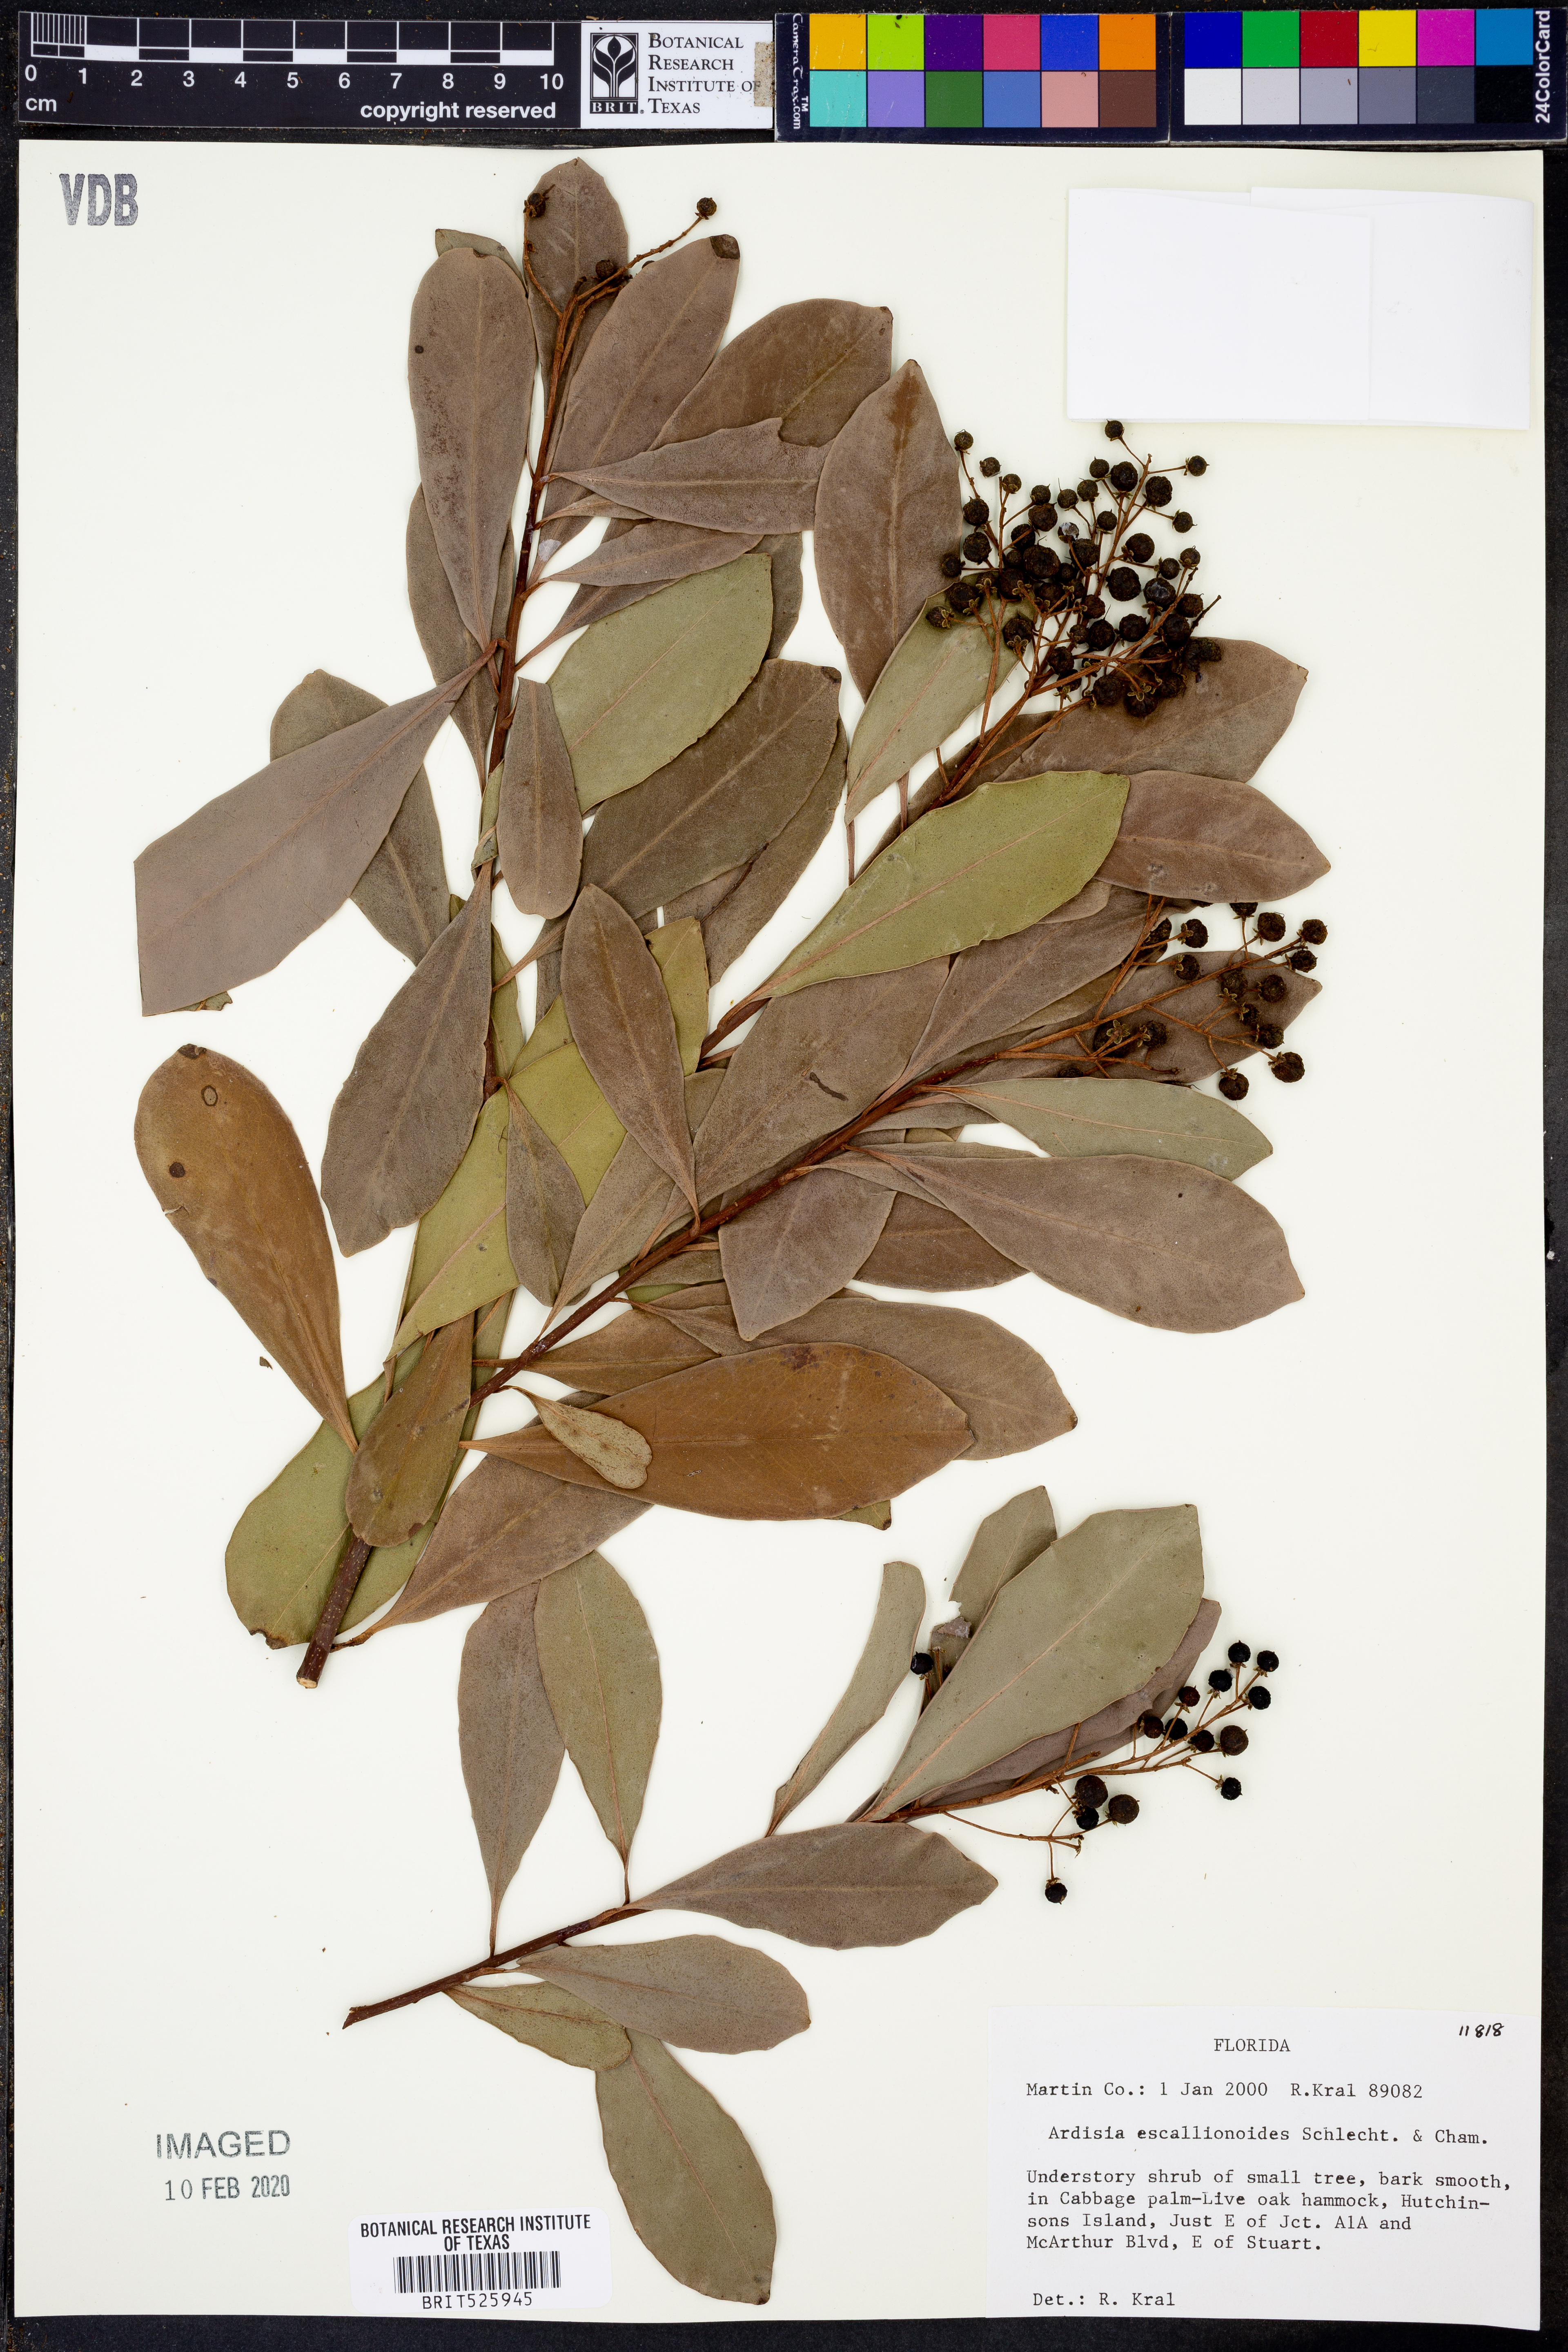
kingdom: Plantae
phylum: Tracheophyta
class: Magnoliopsida
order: Ericales
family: Primulaceae
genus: Ardisia
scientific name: Ardisia escallonioides
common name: Island marlberry
